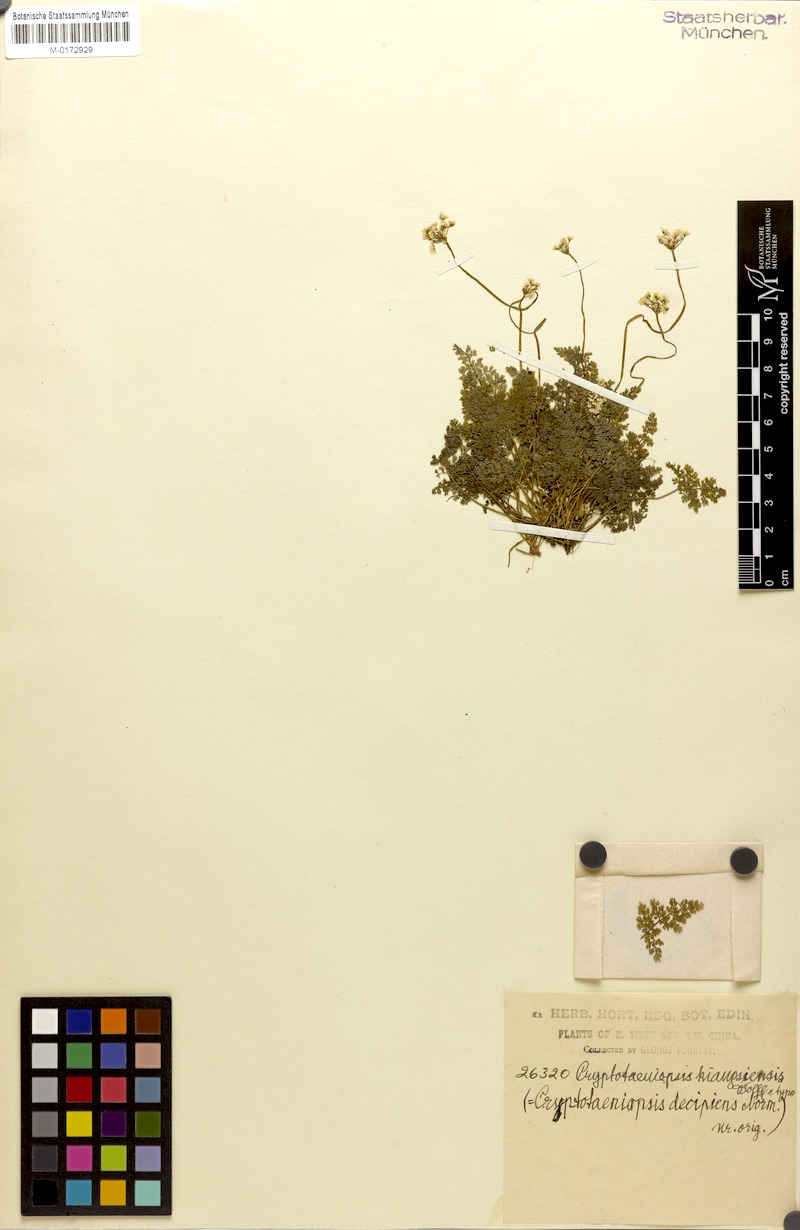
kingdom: Plantae
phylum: Tracheophyta
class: Magnoliopsida
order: Apiales
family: Apiaceae
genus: Pternopetalum
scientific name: Pternopetalum trichomanifolium
